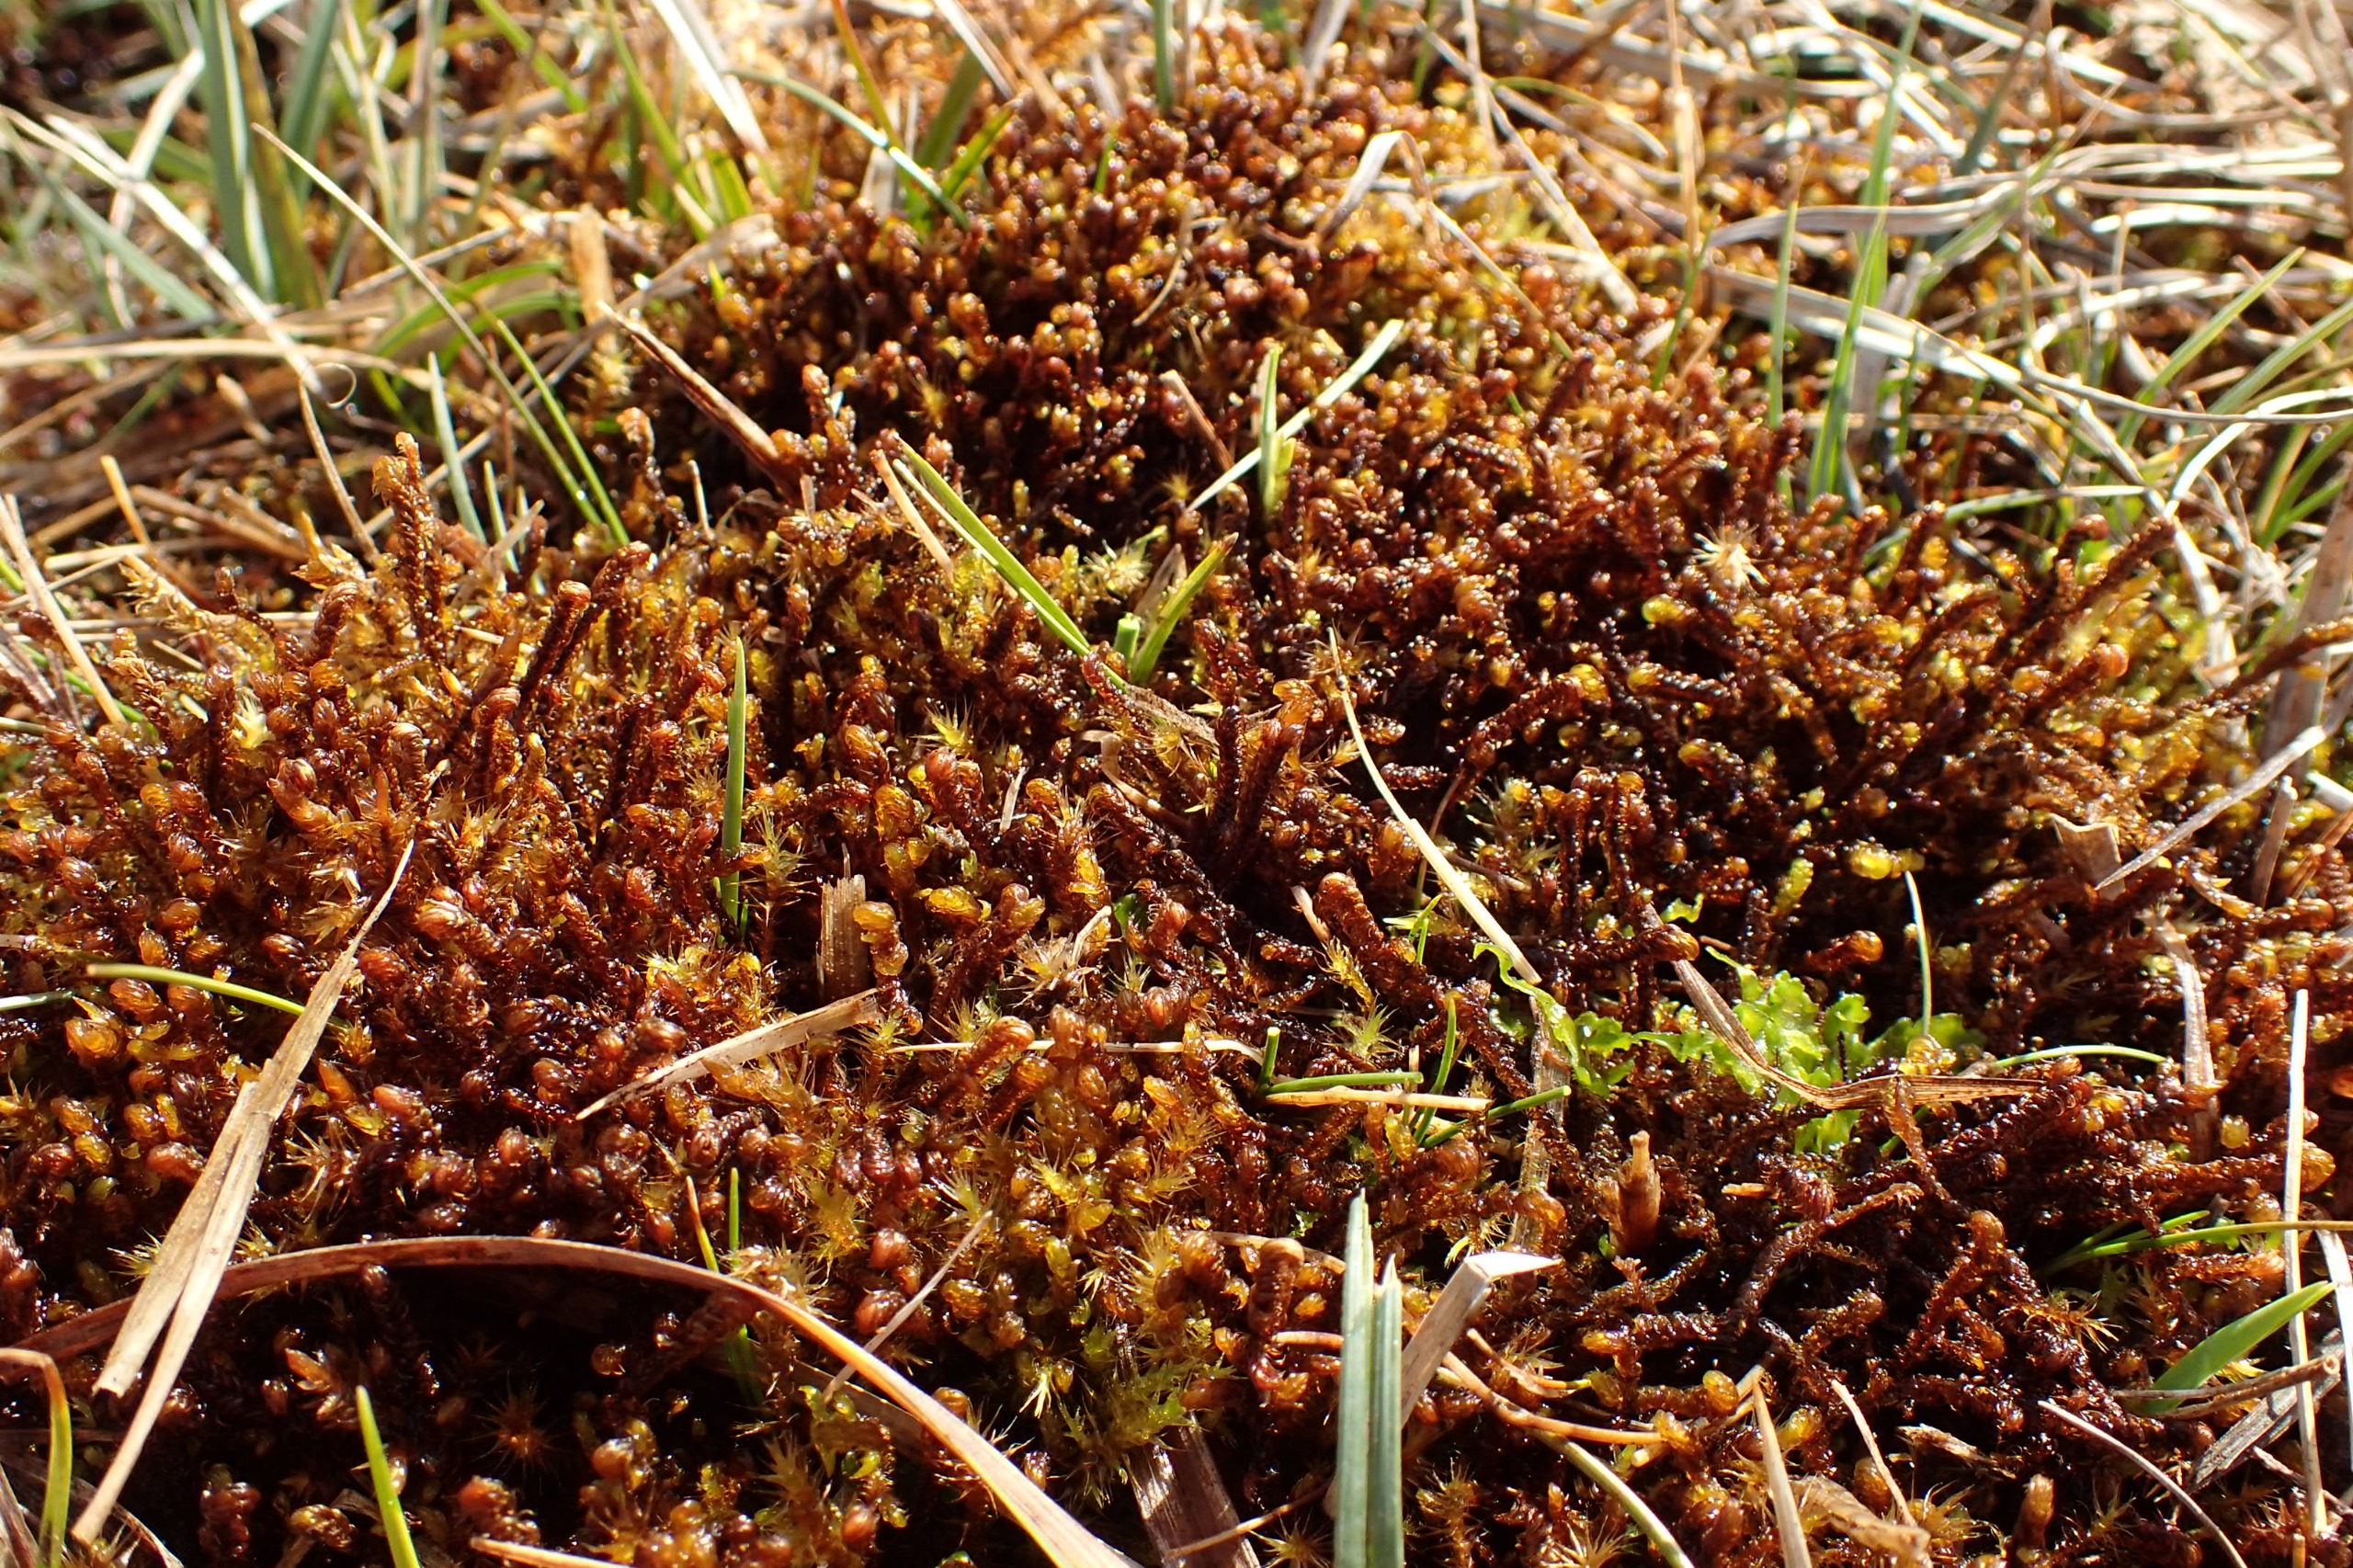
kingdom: Plantae
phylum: Bryophyta
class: Bryopsida
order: Hypnales
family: Scorpidiaceae
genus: Scorpidium
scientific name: Scorpidium cossonii
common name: Grøn krumblad
